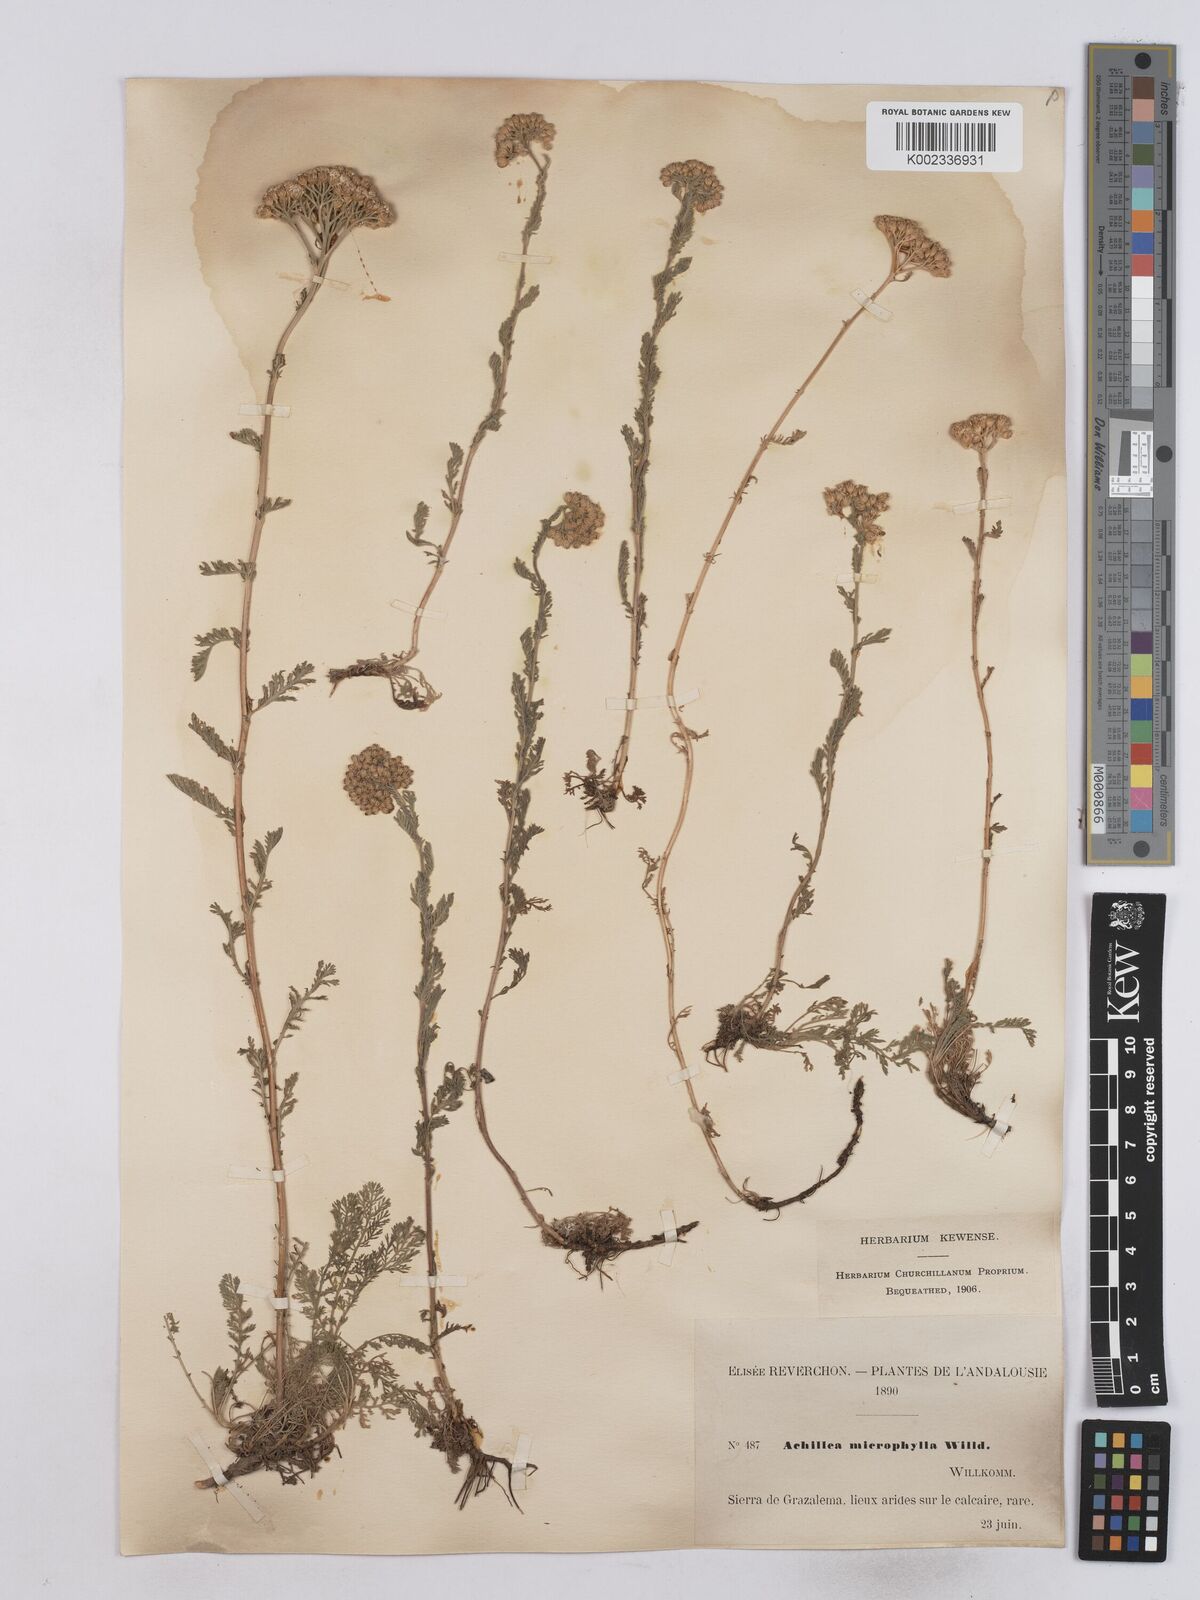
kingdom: Plantae
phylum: Tracheophyta
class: Magnoliopsida
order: Asterales
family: Asteraceae
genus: Achillea
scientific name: Achillea odorata
